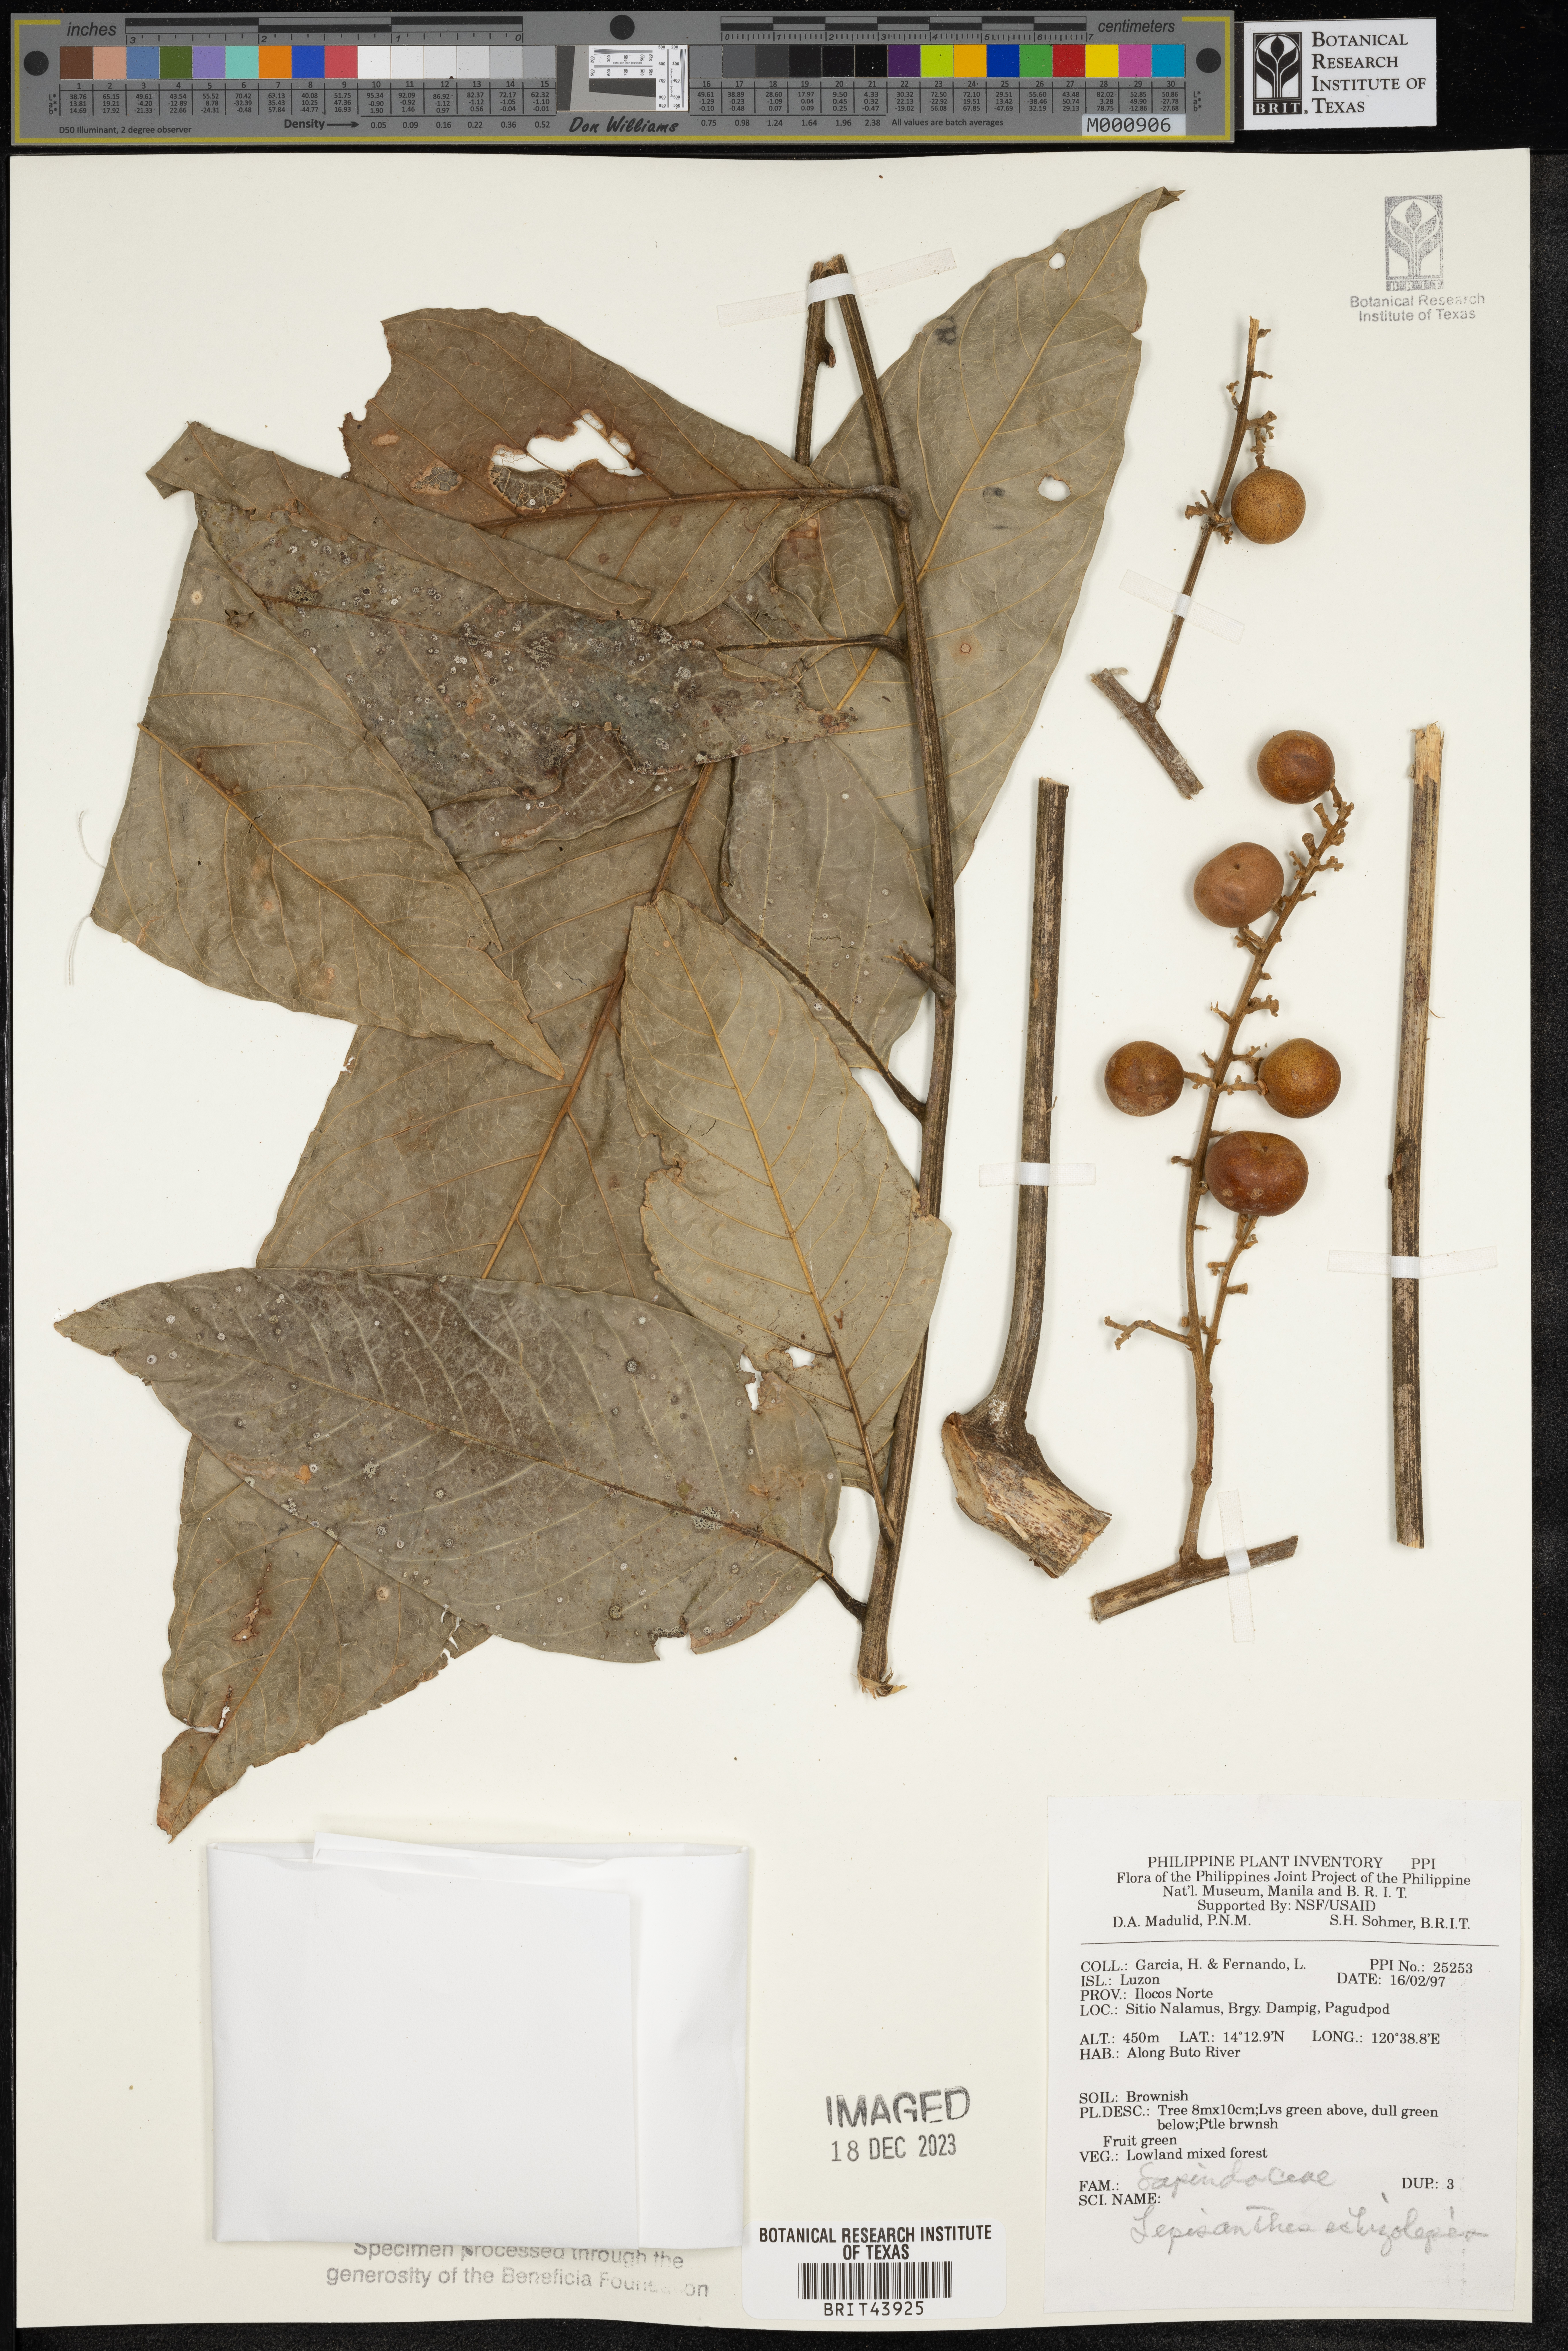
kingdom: Plantae
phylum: Tracheophyta
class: Magnoliopsida
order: Sapindales
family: Sapindaceae
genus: Lepisanthes
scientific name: Lepisanthes tetraphylla
